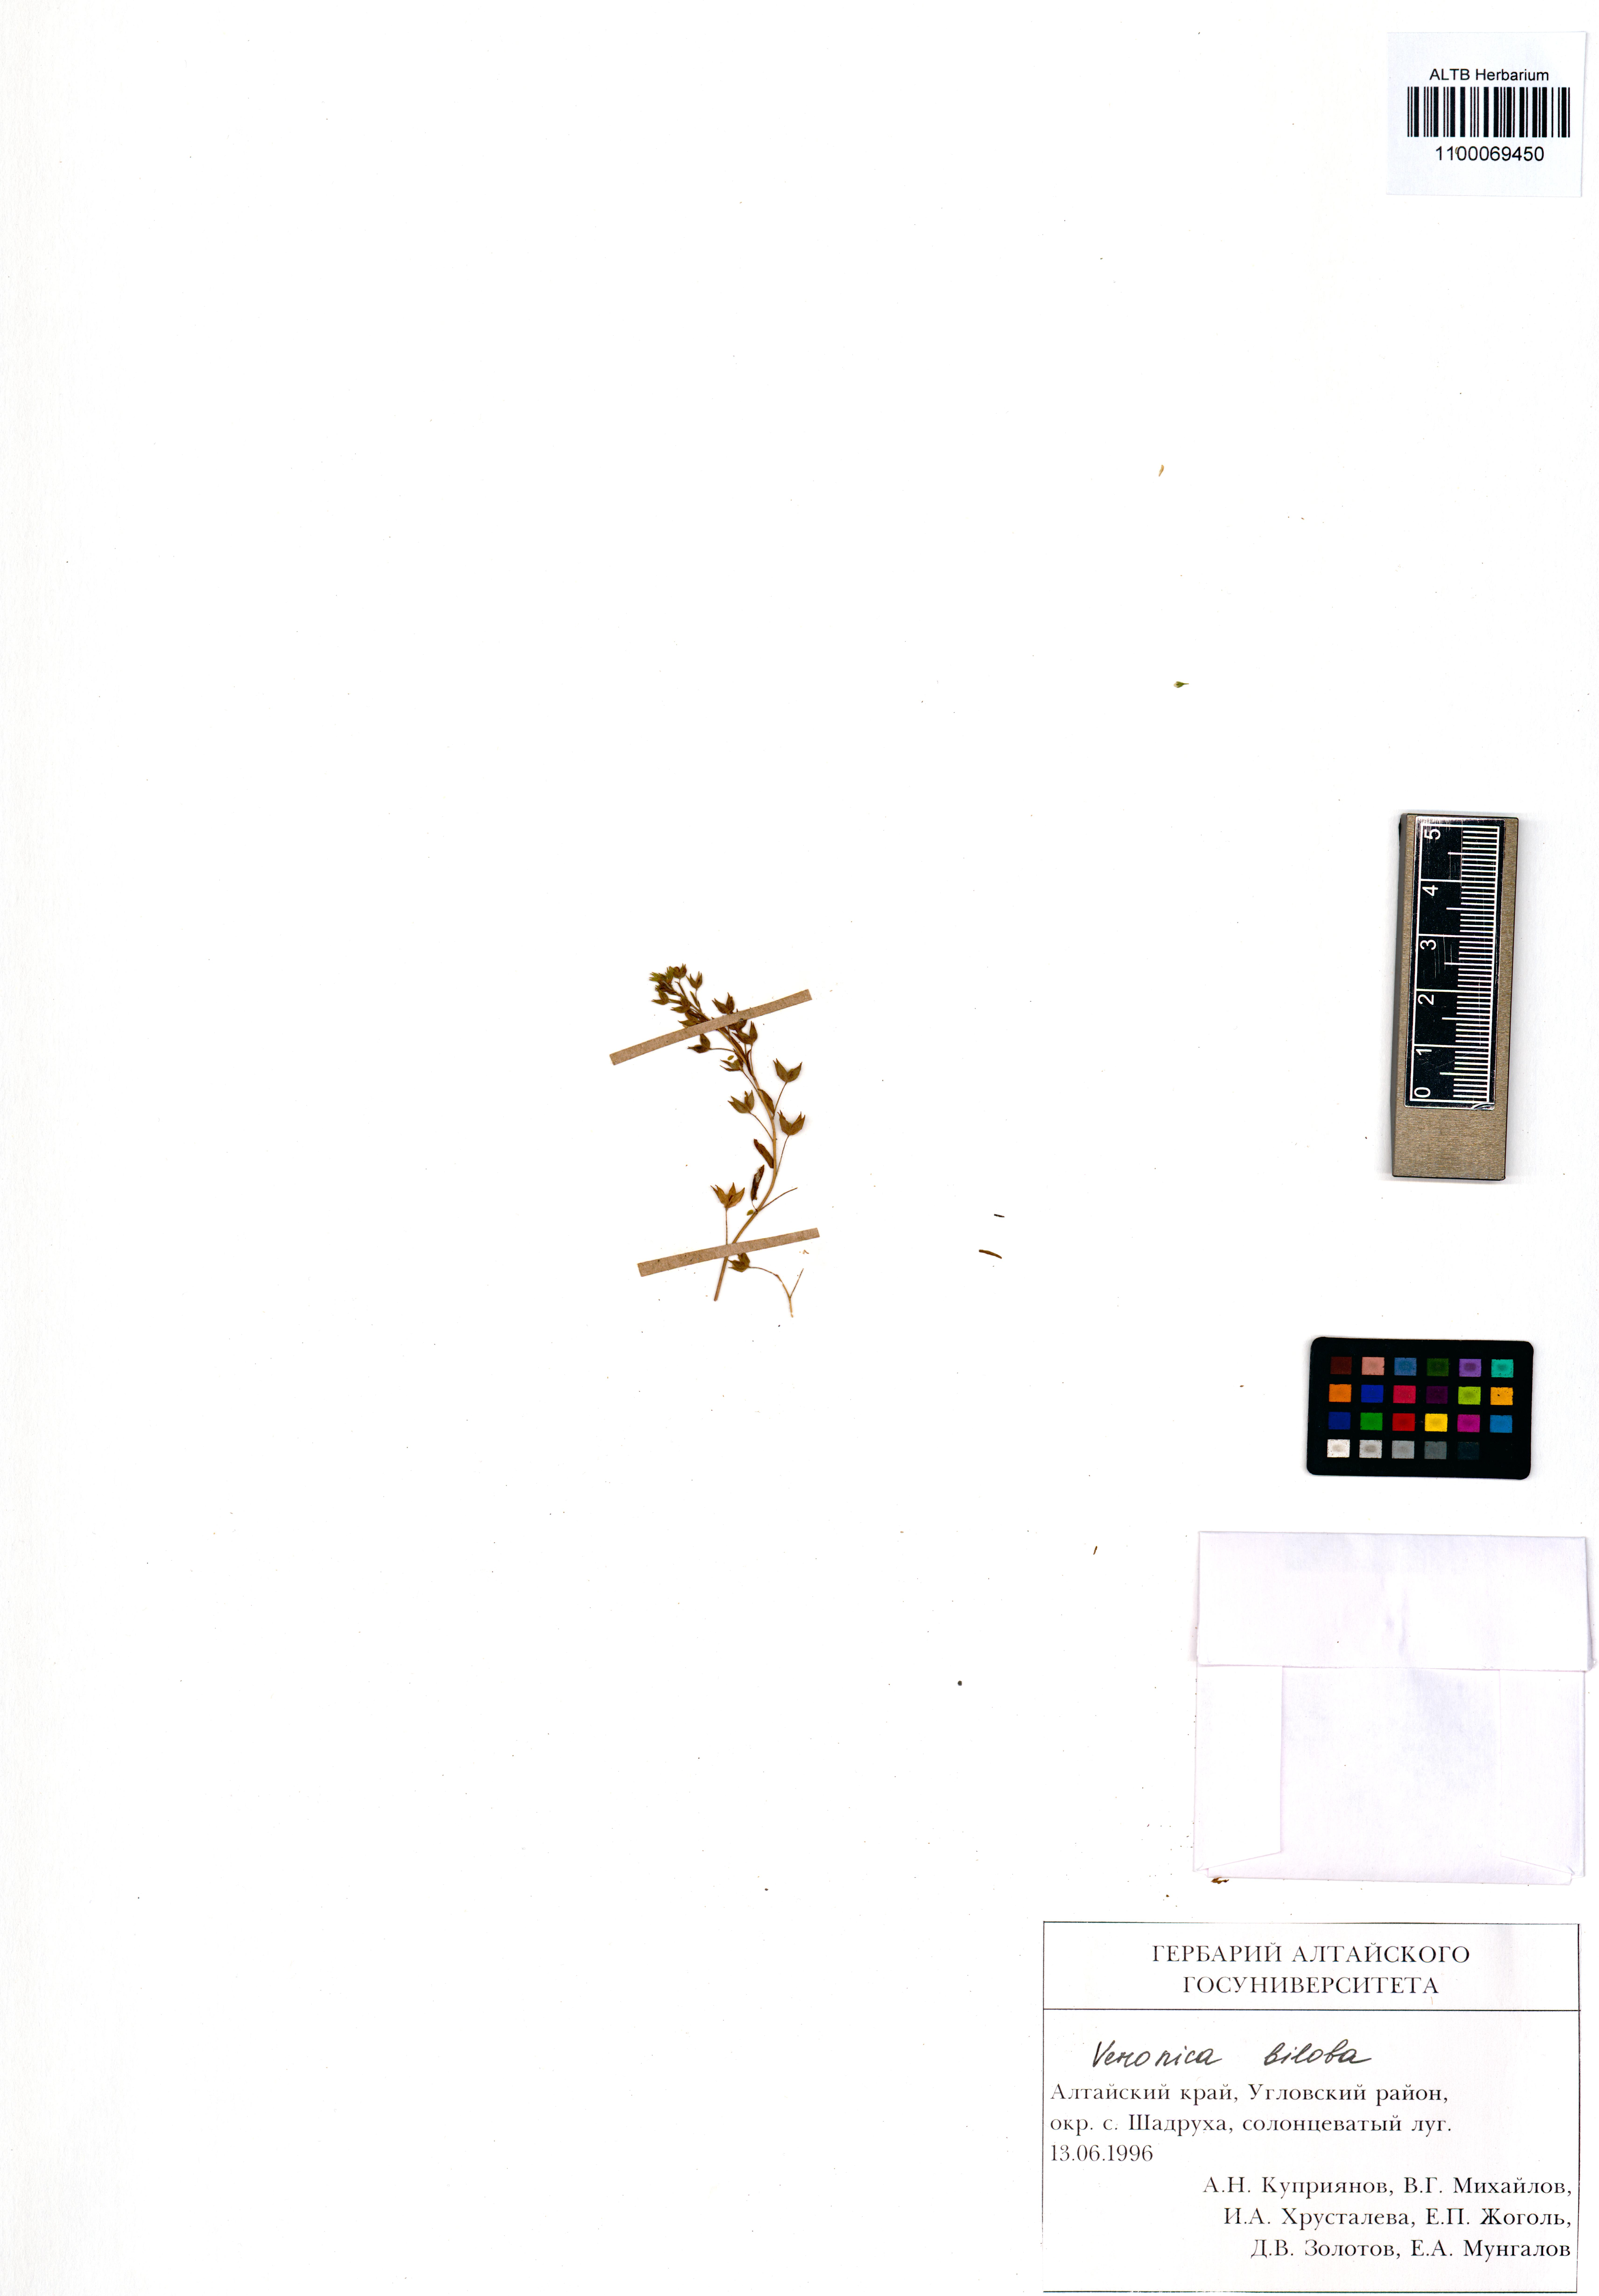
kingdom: Plantae
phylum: Tracheophyta
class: Magnoliopsida
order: Lamiales
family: Plantaginaceae
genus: Veronica
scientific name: Veronica biloba
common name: Twolobe speedwell
